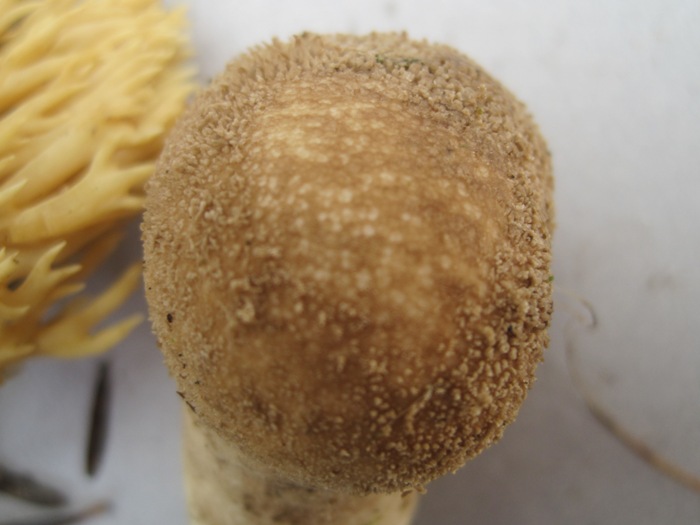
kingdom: Fungi
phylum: Basidiomycota
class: Agaricomycetes
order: Agaricales
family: Lycoperdaceae
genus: Lycoperdon
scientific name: Lycoperdon nigrescens
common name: sortagtig støvbold
